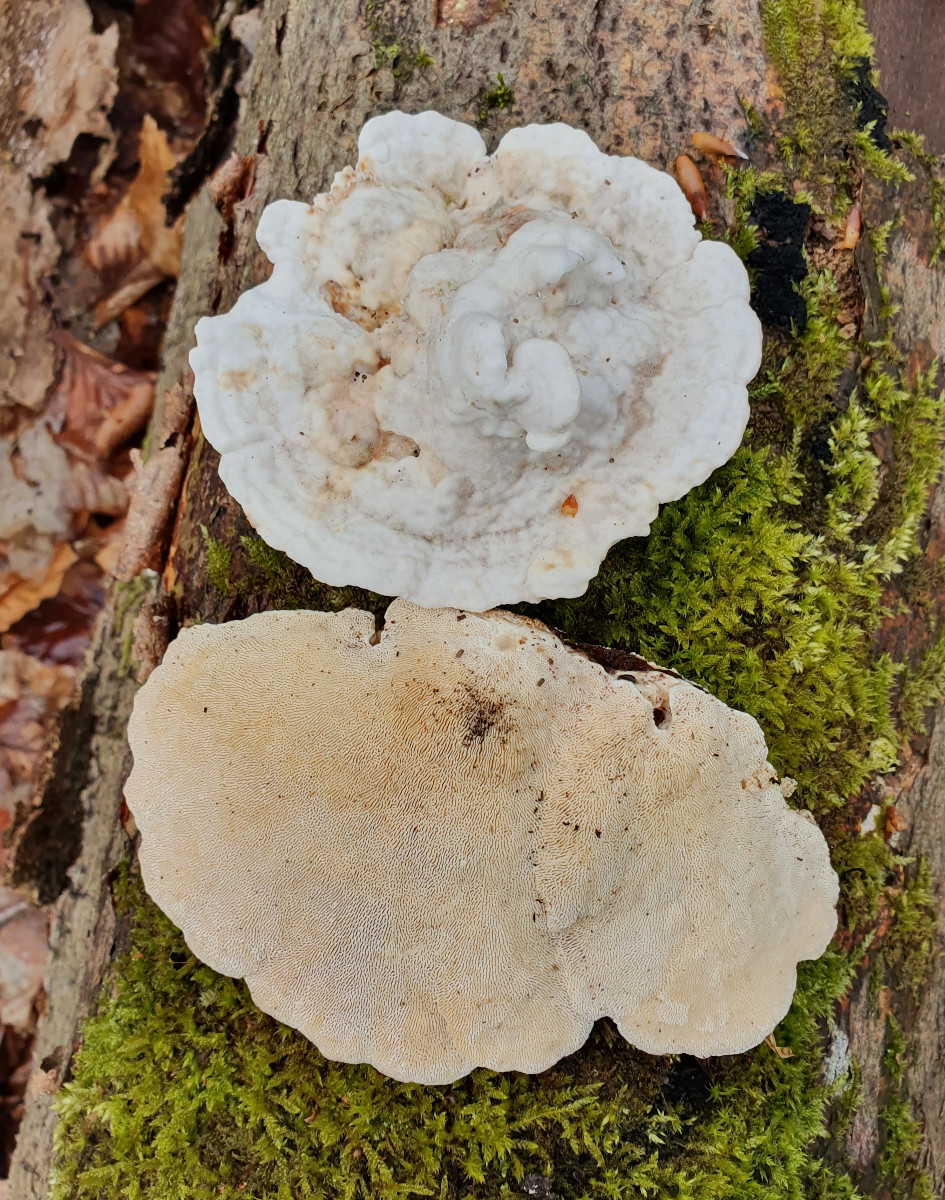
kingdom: Fungi
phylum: Basidiomycota
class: Agaricomycetes
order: Polyporales
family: Polyporaceae
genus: Trametes
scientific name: Trametes gibbosa
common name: puklet læderporesvamp
